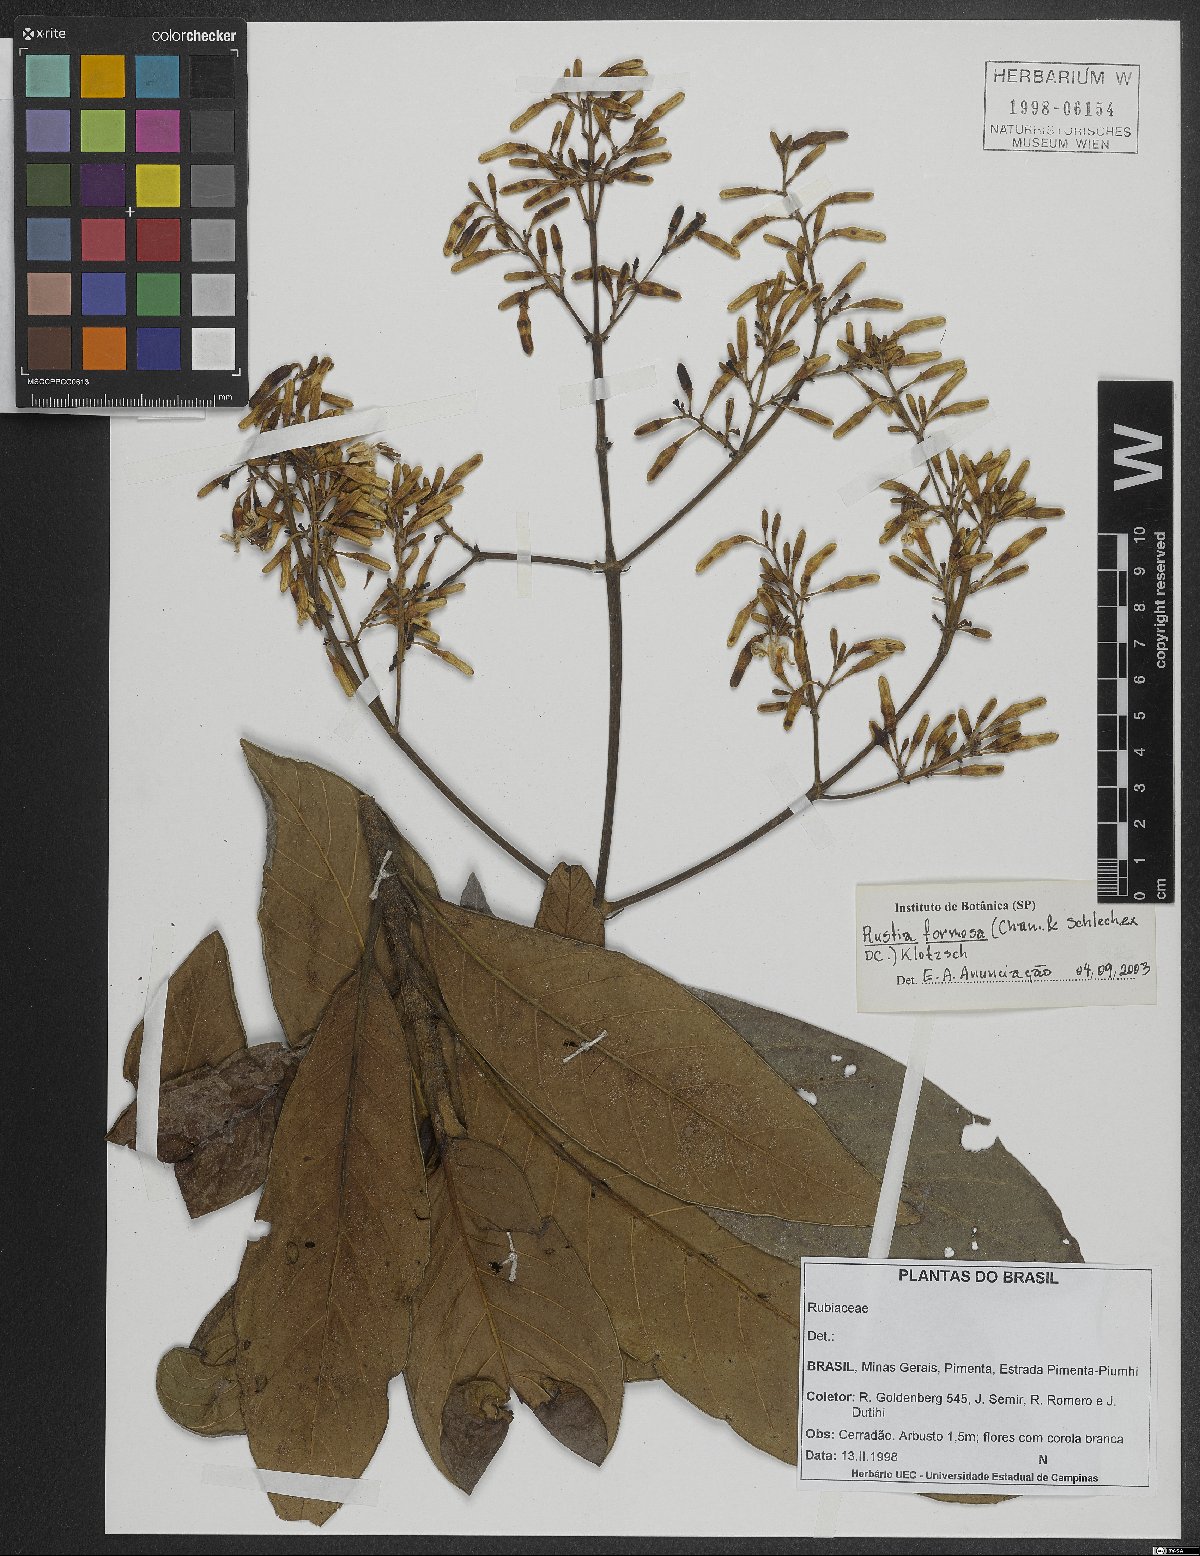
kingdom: Plantae
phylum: Tracheophyta
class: Magnoliopsida
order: Gentianales
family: Rubiaceae
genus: Rustia
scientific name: Rustia formosa
